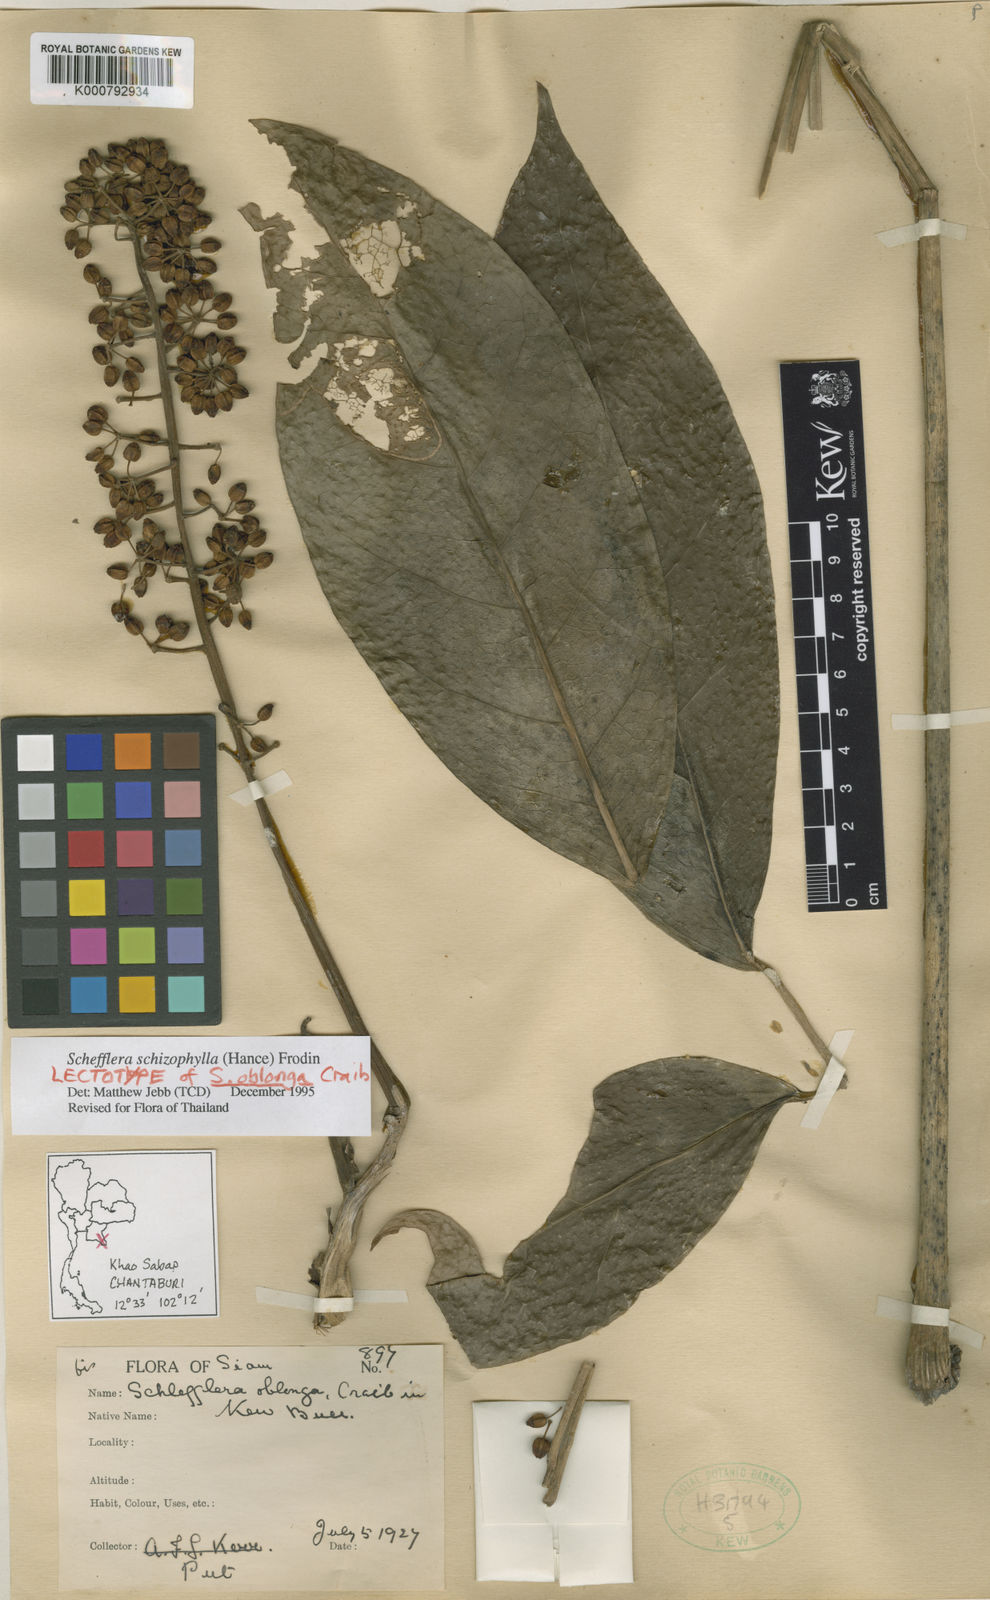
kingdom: Plantae
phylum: Tracheophyta
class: Magnoliopsida
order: Apiales
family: Araliaceae
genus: Heptapleurum
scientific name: Heptapleurum schizophyllum
